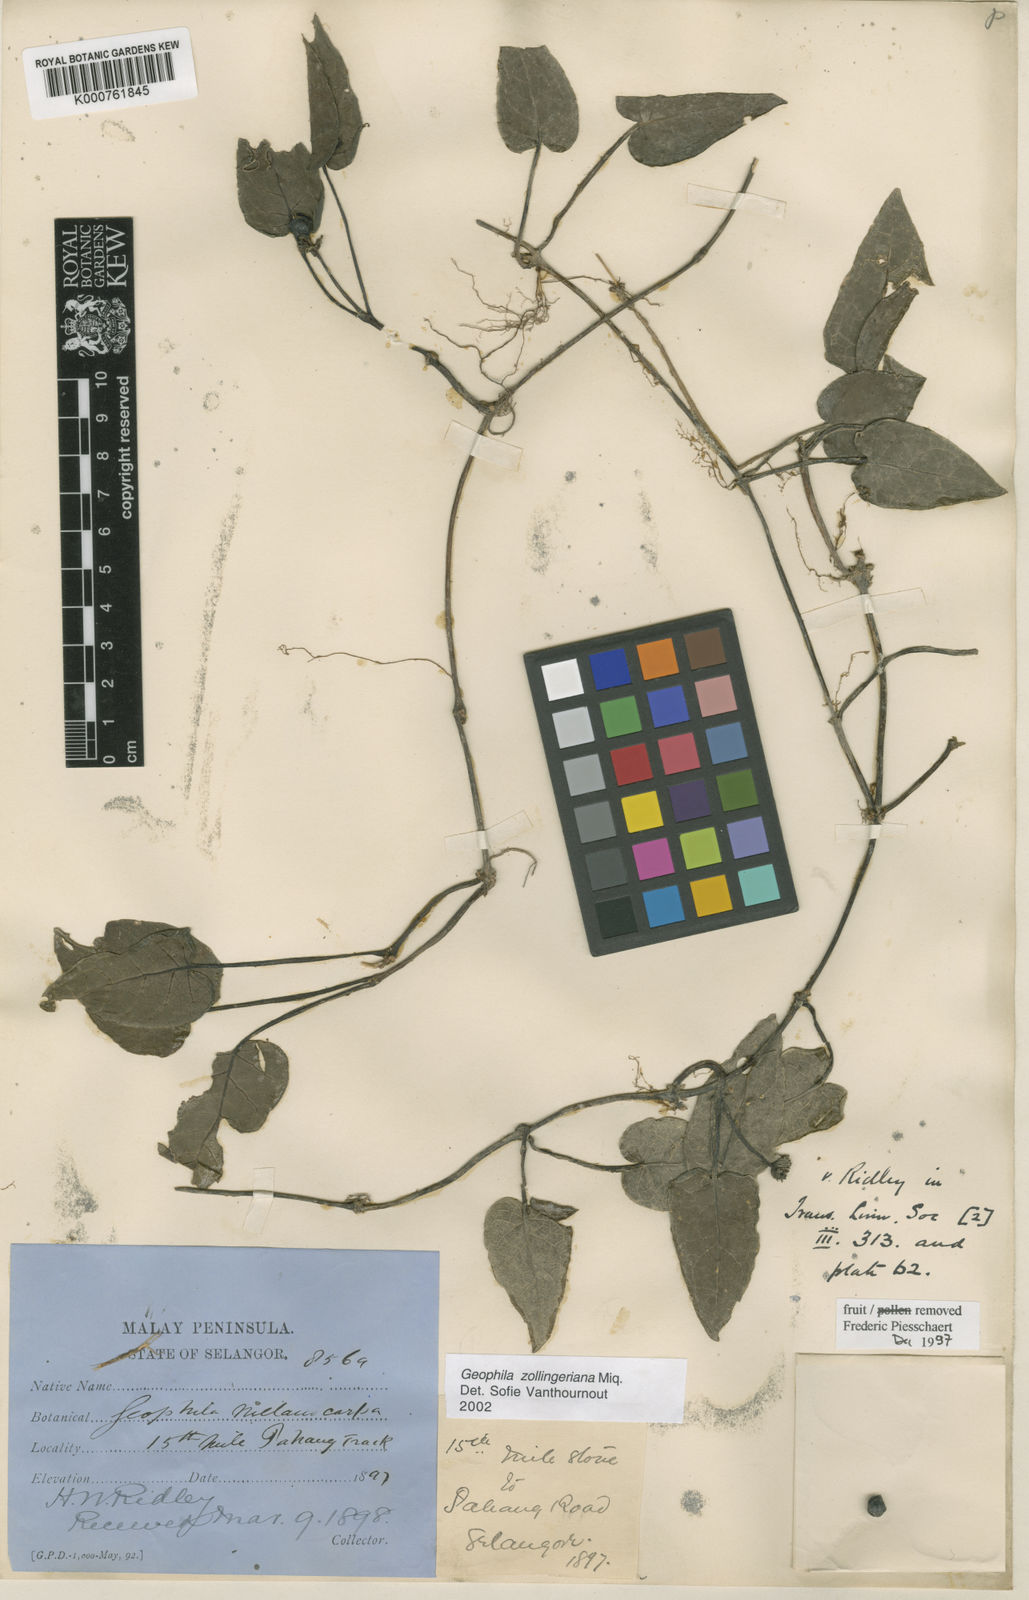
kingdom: Plantae
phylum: Tracheophyta
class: Magnoliopsida
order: Gentianales
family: Rubiaceae
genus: Geophila
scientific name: Geophila zollingeriana
